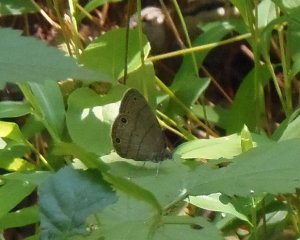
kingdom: Animalia
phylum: Arthropoda
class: Insecta
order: Lepidoptera
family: Nymphalidae
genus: Hermeuptychia
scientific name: Hermeuptychia hermes
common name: Carolina Satyr
